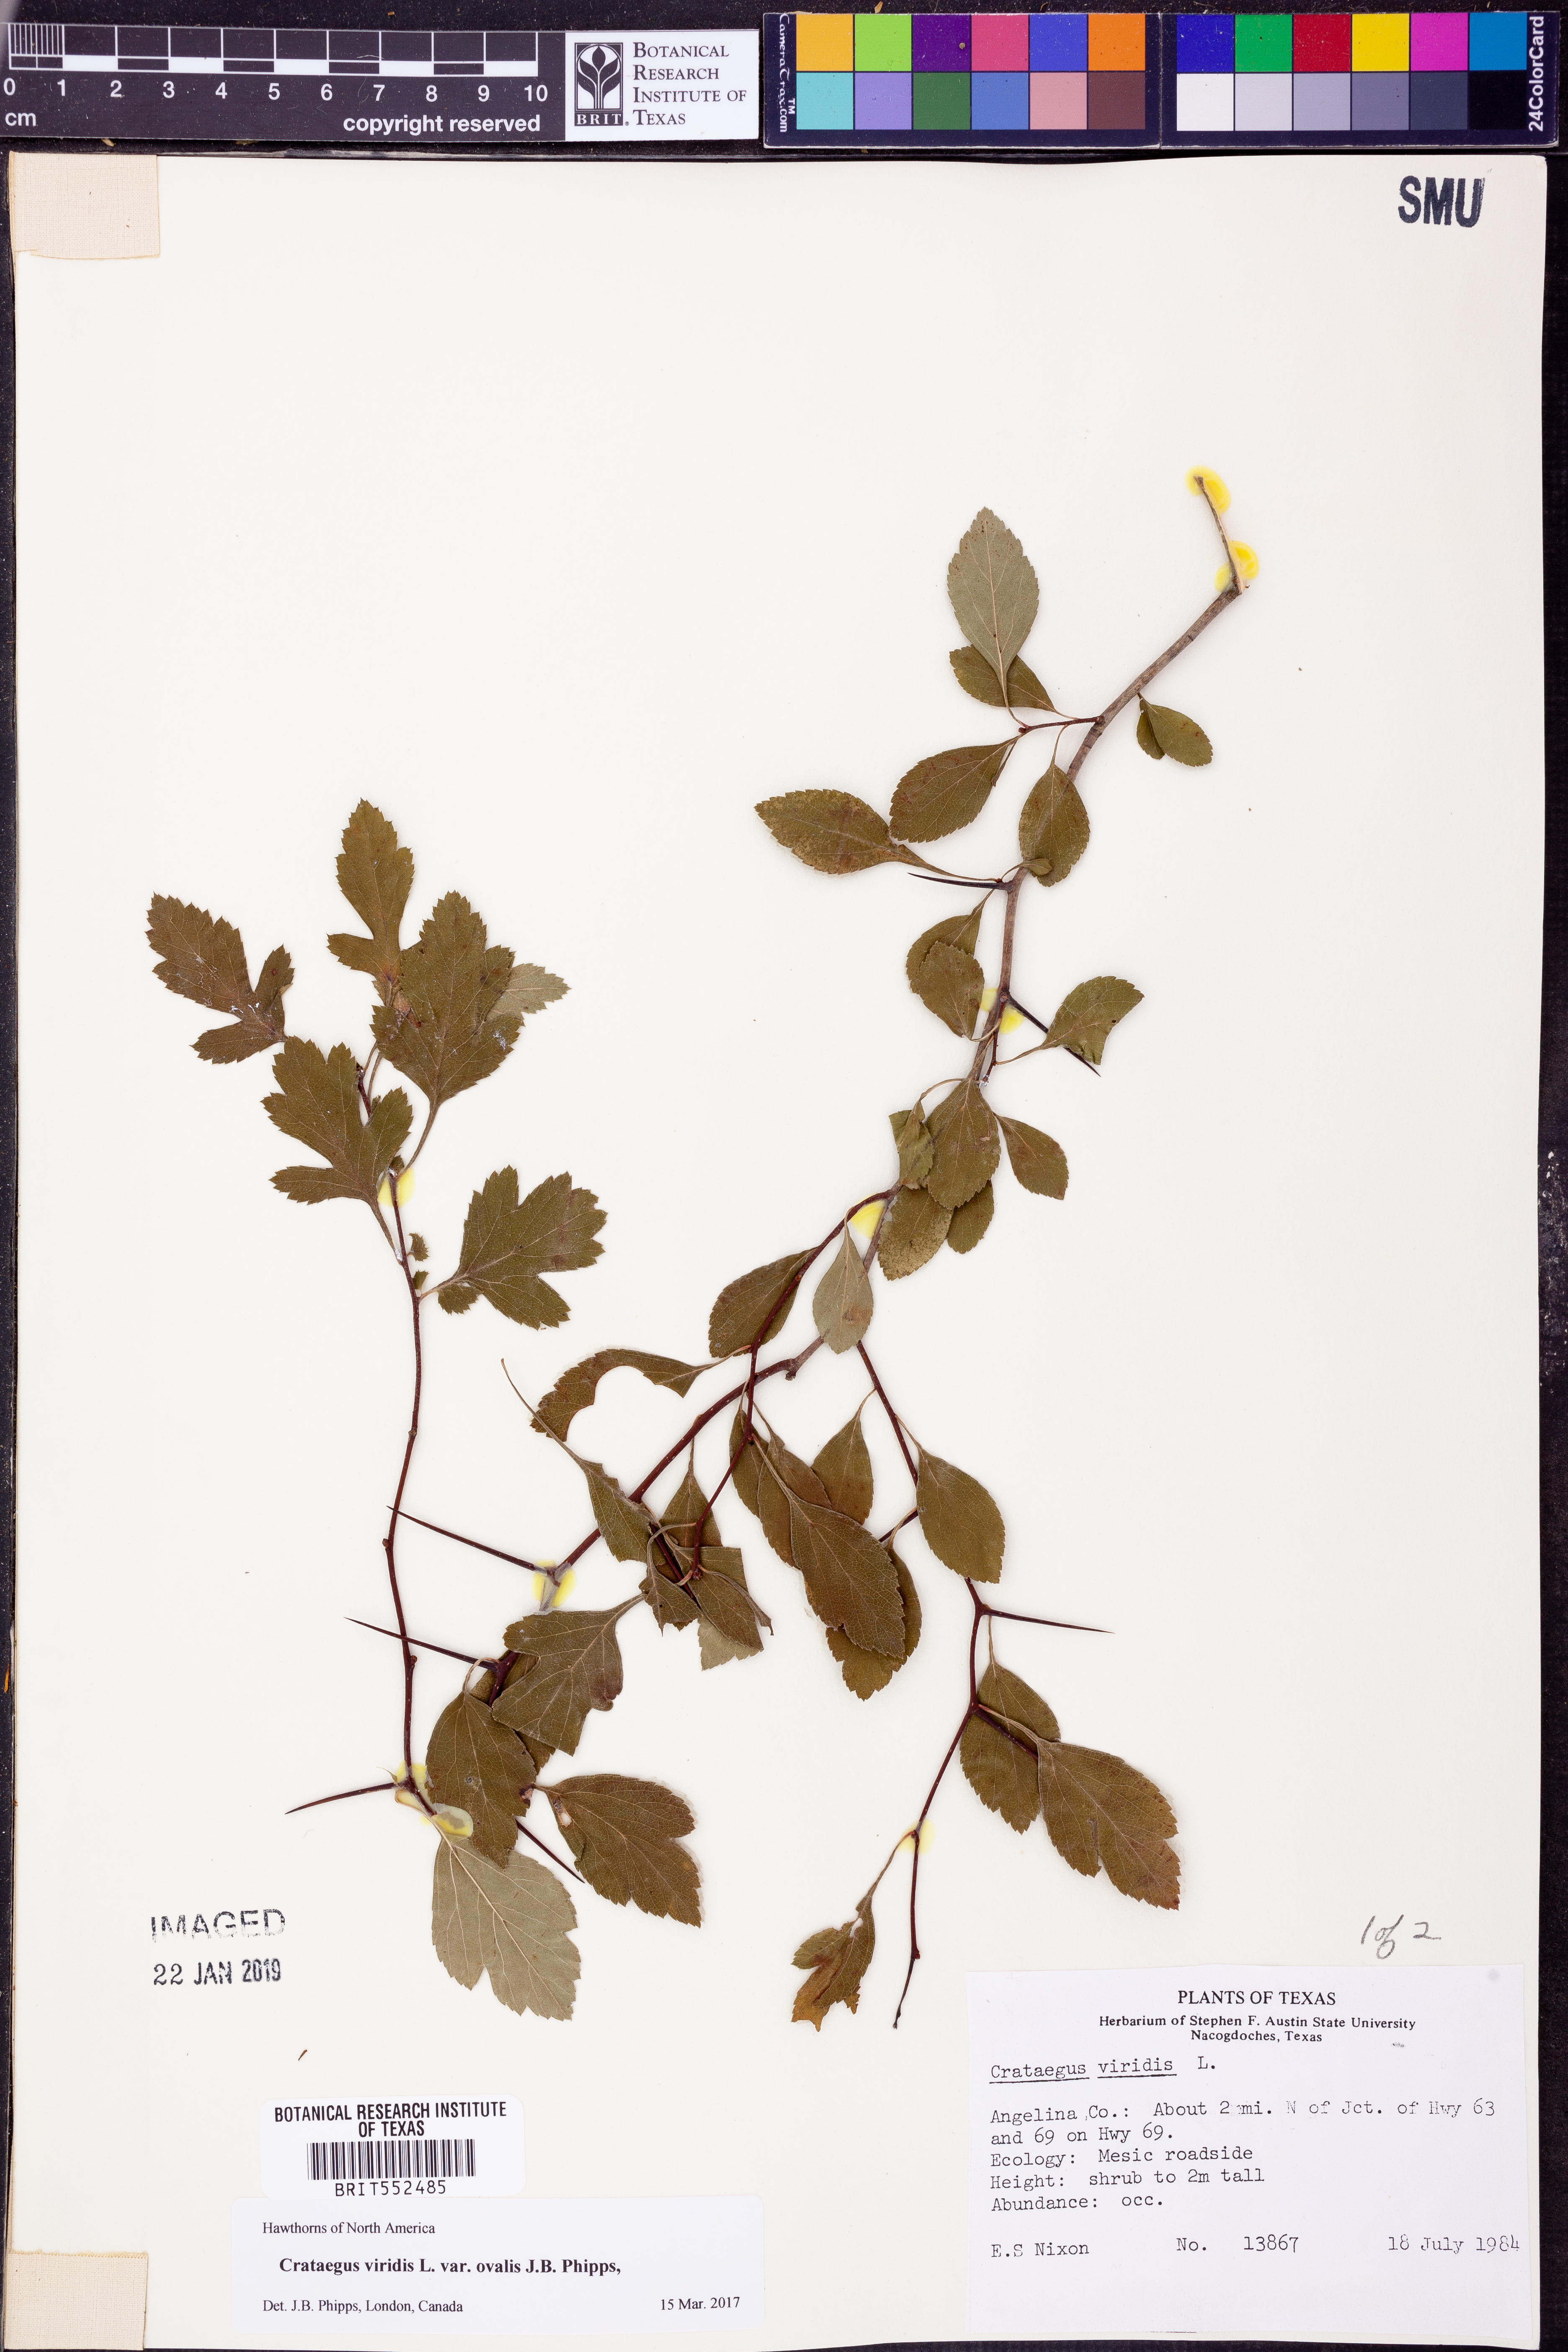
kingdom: Plantae
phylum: Tracheophyta
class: Magnoliopsida
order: Rosales
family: Rosaceae
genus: Crataegus
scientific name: Crataegus viridis
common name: Southernthorn
